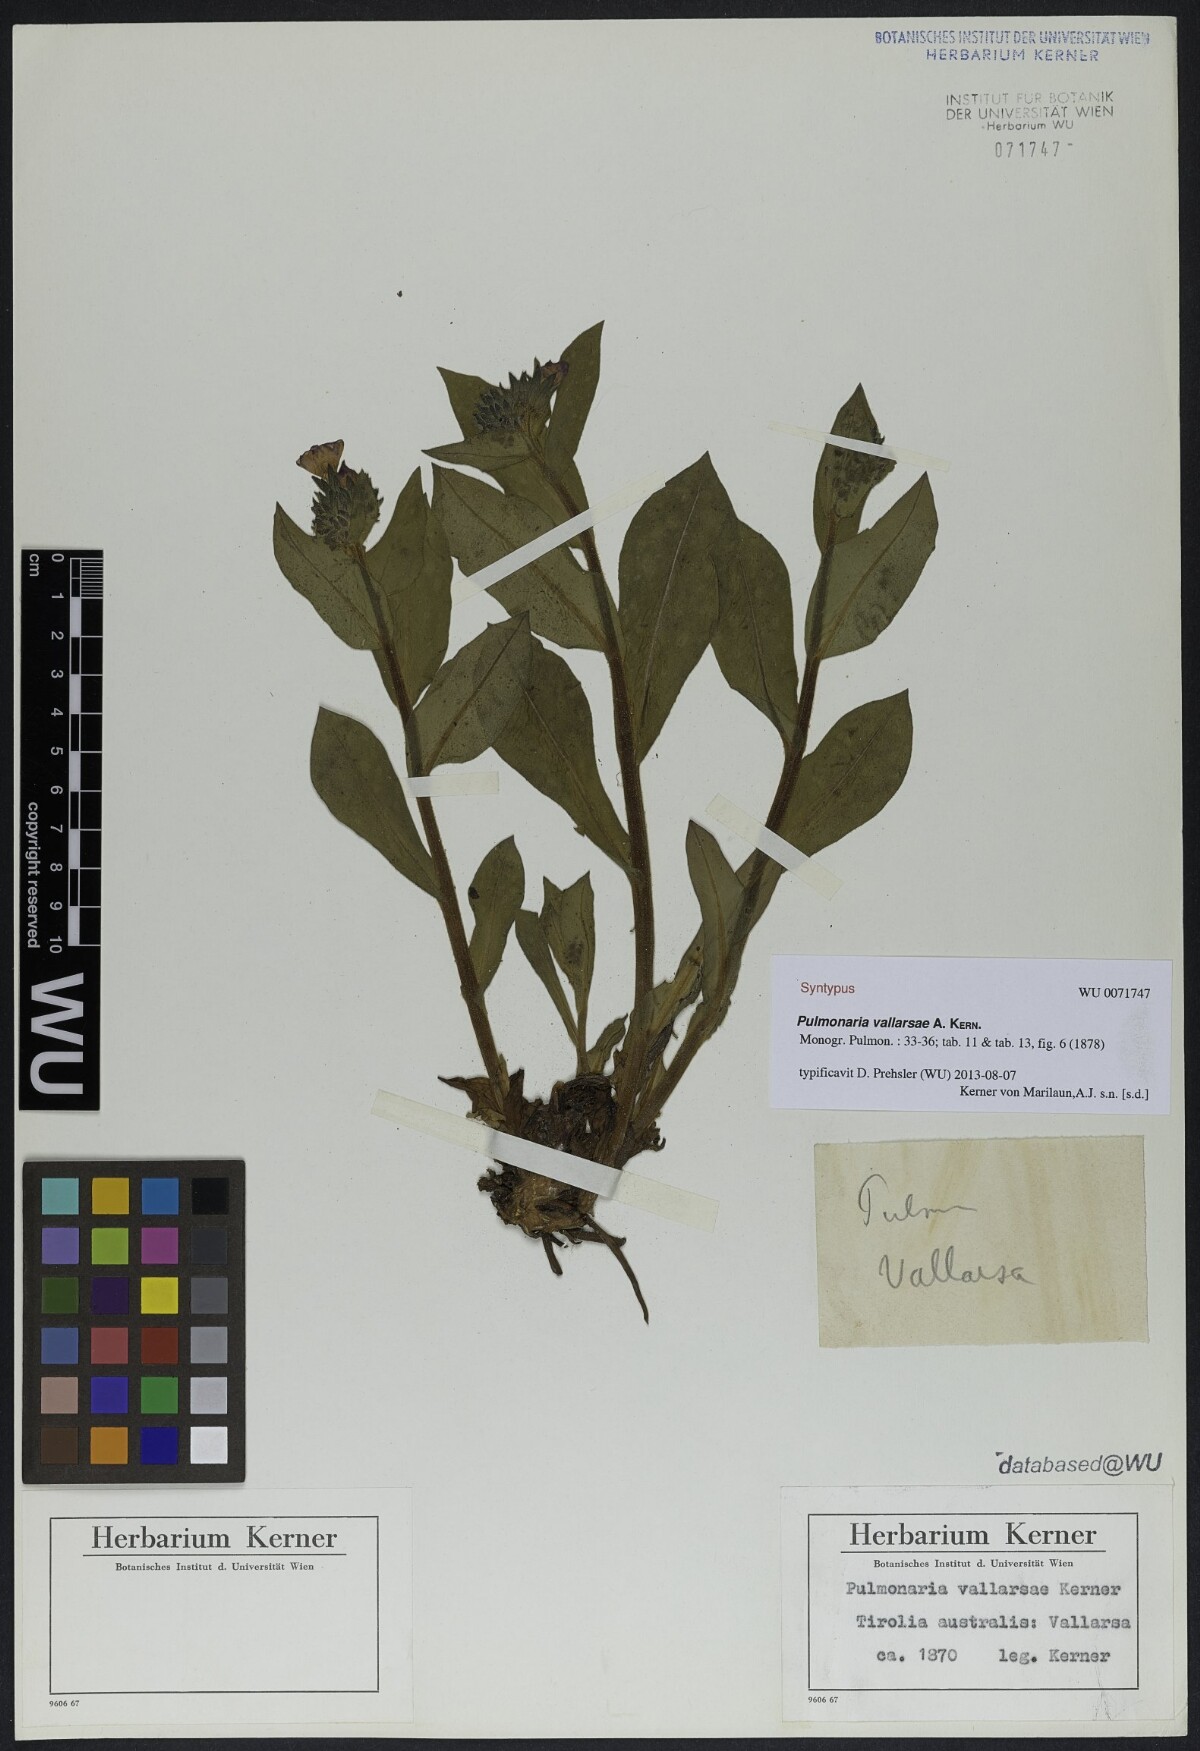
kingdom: Plantae
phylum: Tracheophyta
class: Magnoliopsida
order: Boraginales
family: Boraginaceae
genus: Pulmonaria
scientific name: Pulmonaria hirta
